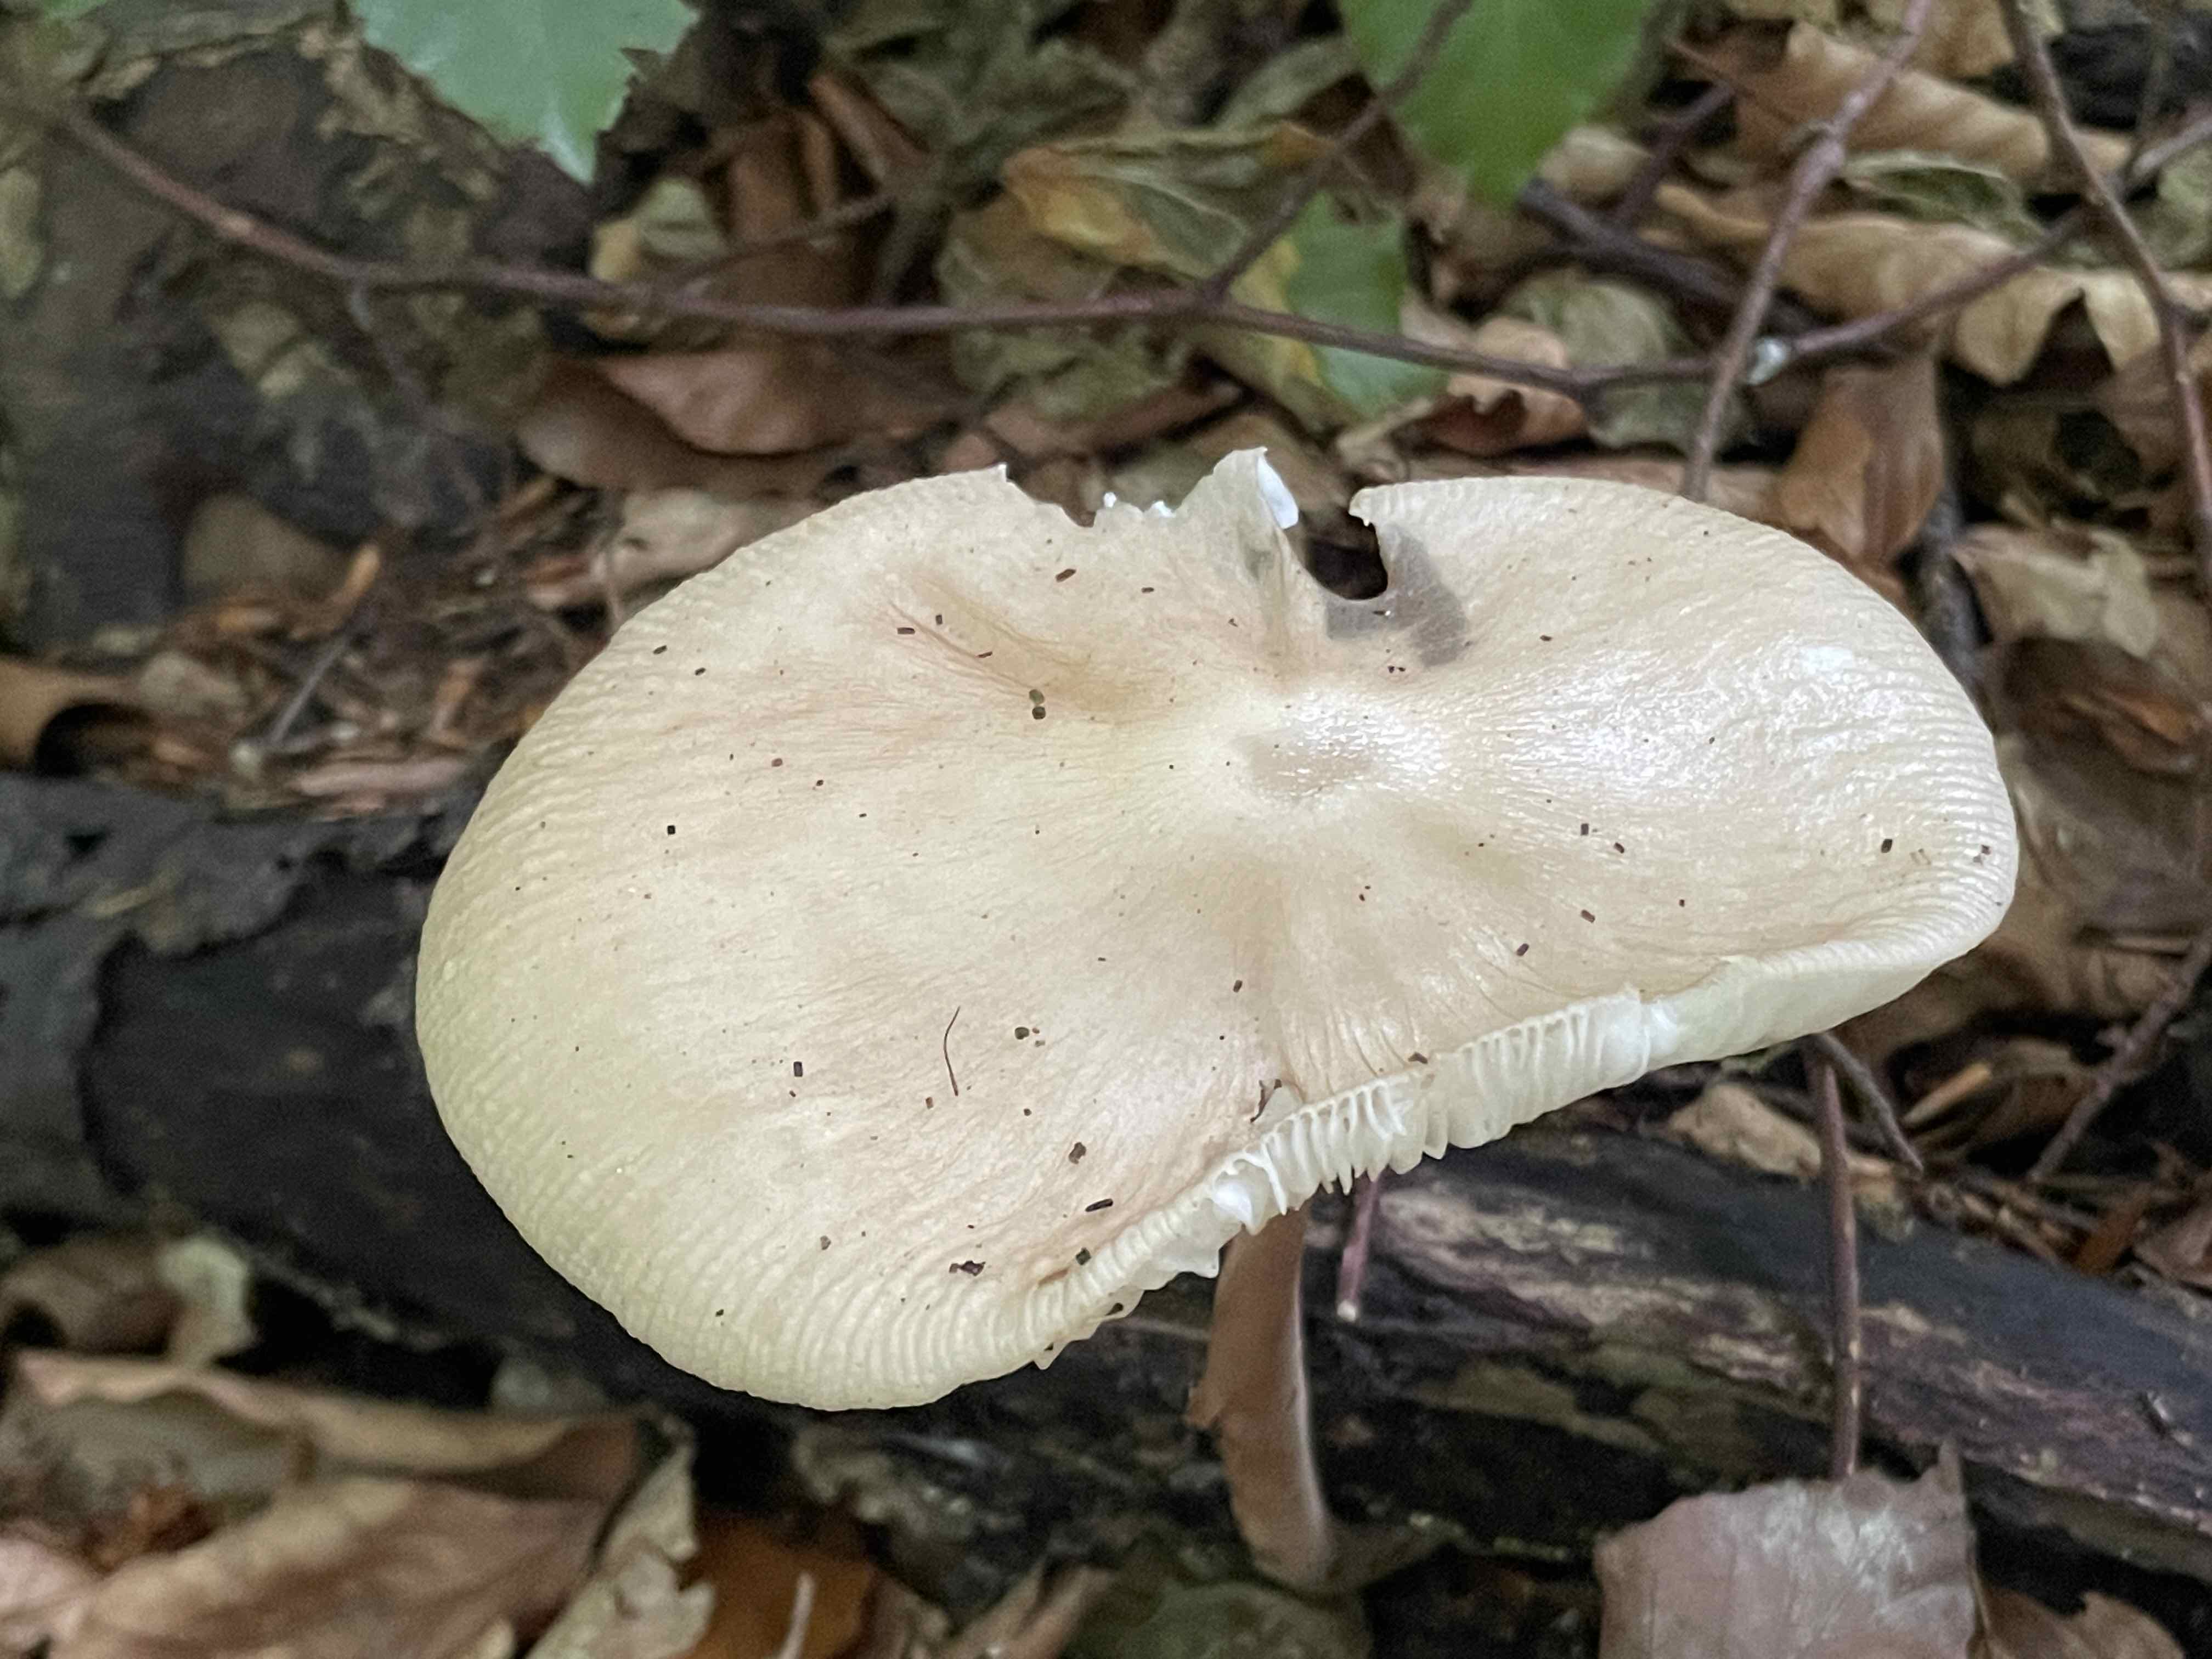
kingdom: Fungi
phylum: Basidiomycota
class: Agaricomycetes
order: Agaricales
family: Physalacriaceae
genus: Hymenopellis
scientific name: Hymenopellis radicata
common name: almindelig pælerodshat
